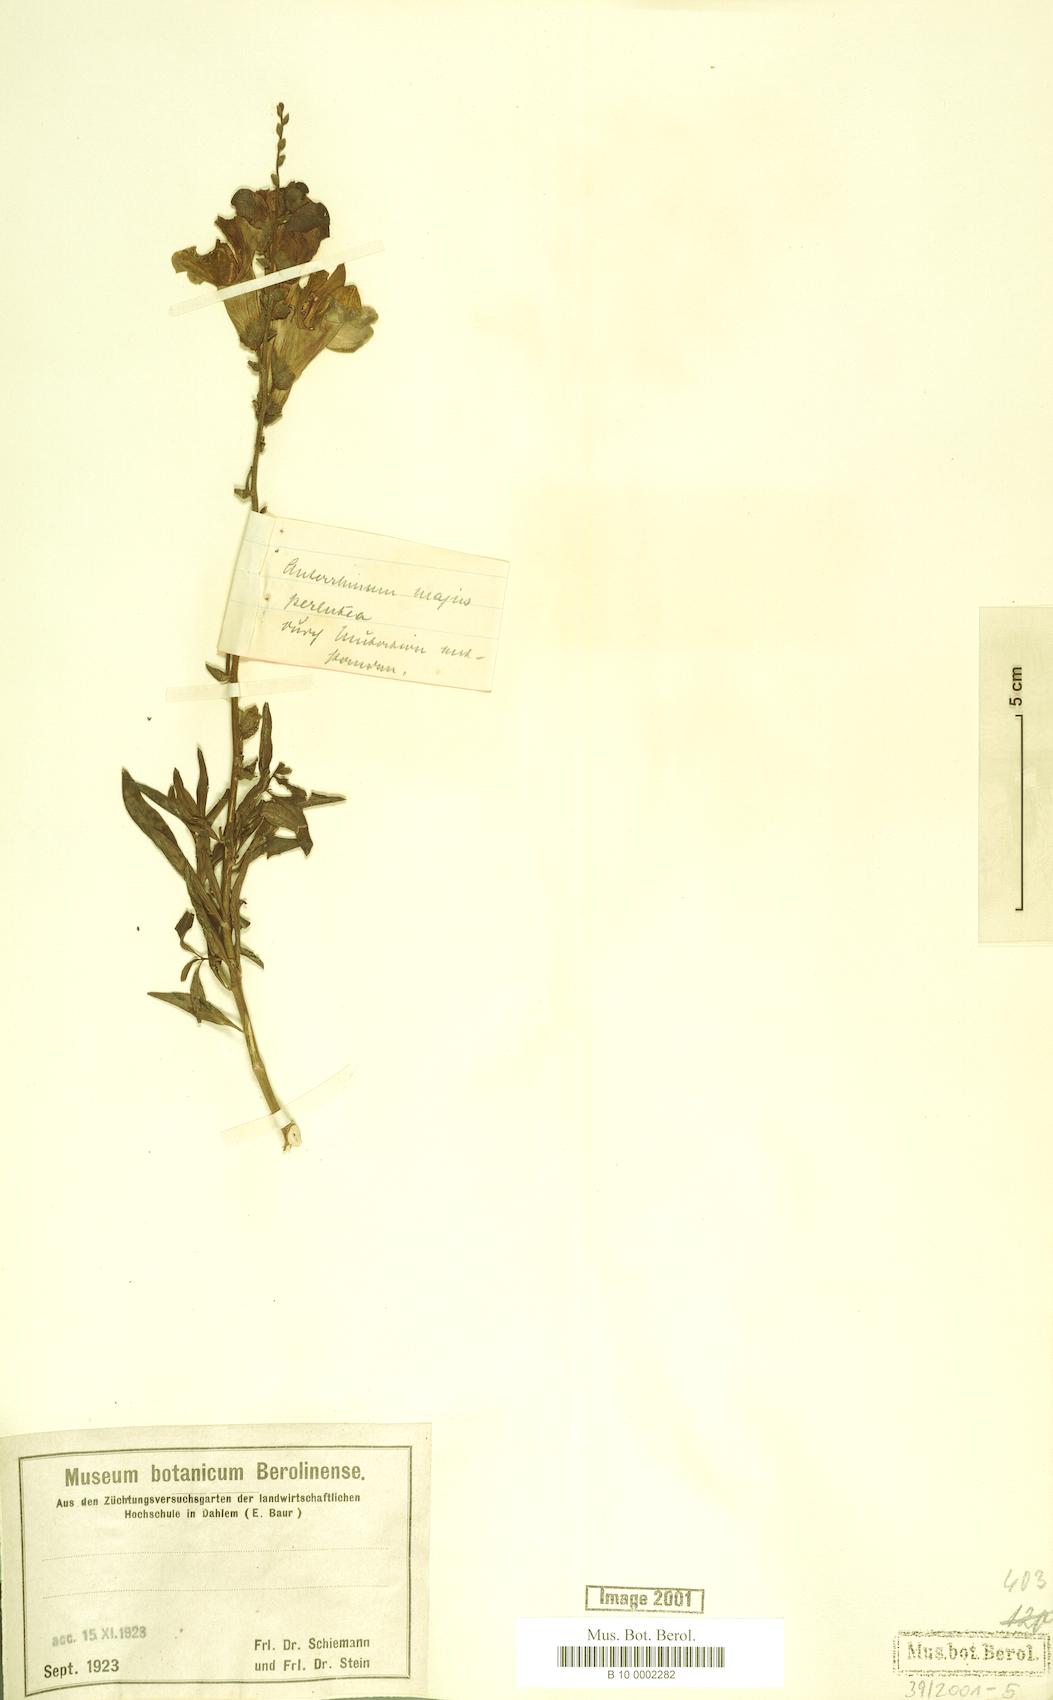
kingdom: Plantae
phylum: Tracheophyta
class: Magnoliopsida
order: Lamiales
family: Plantaginaceae
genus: Antirrhinum
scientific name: Antirrhinum majus
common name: Snapdragon
